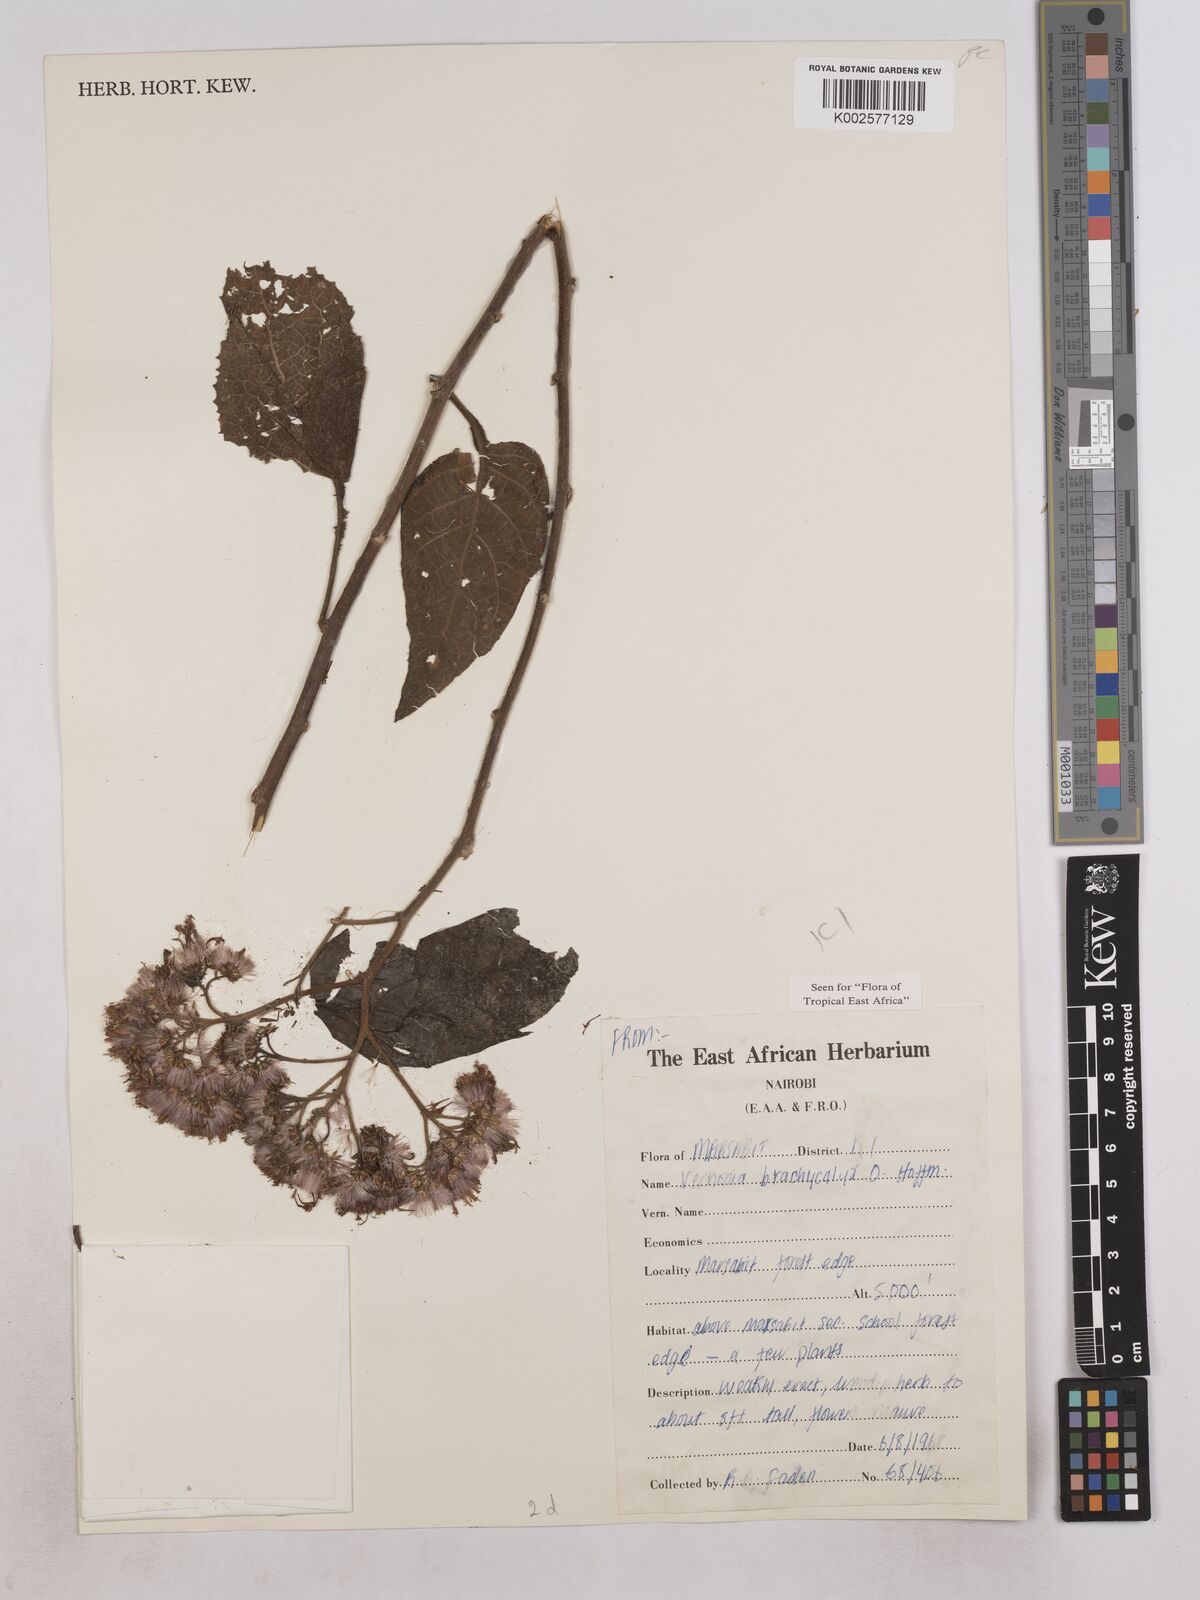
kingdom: Plantae
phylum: Tracheophyta
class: Magnoliopsida
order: Asterales
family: Asteraceae
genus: Hoffmannanthus
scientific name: Hoffmannanthus abbotianus
